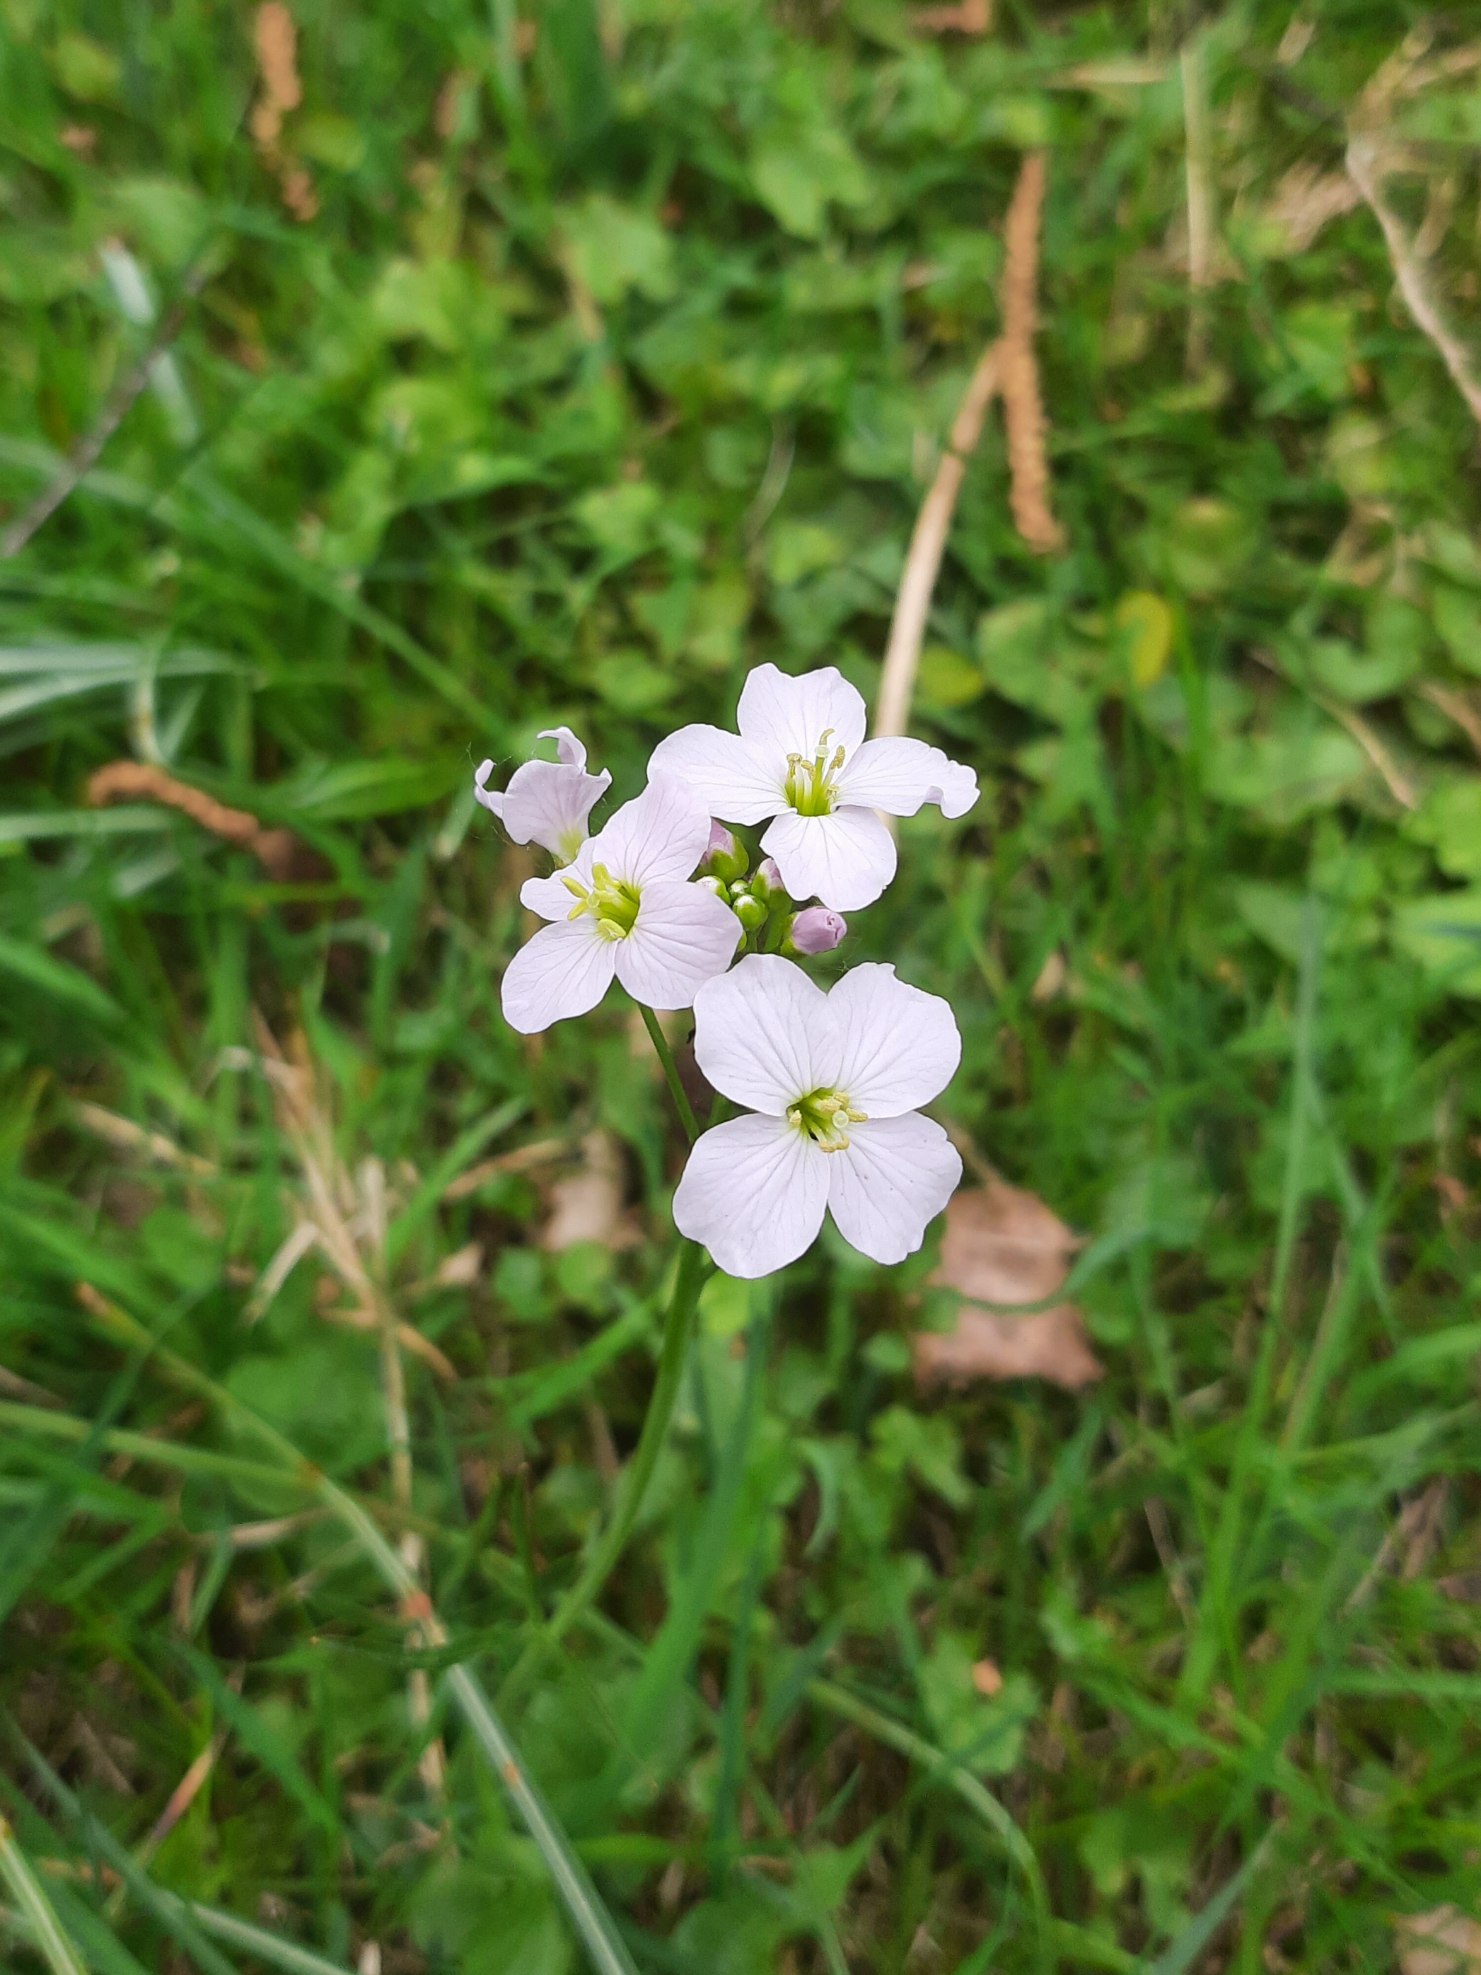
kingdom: Plantae
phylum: Tracheophyta
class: Magnoliopsida
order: Brassicales
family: Brassicaceae
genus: Cardamine
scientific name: Cardamine pratensis
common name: Engkarse
